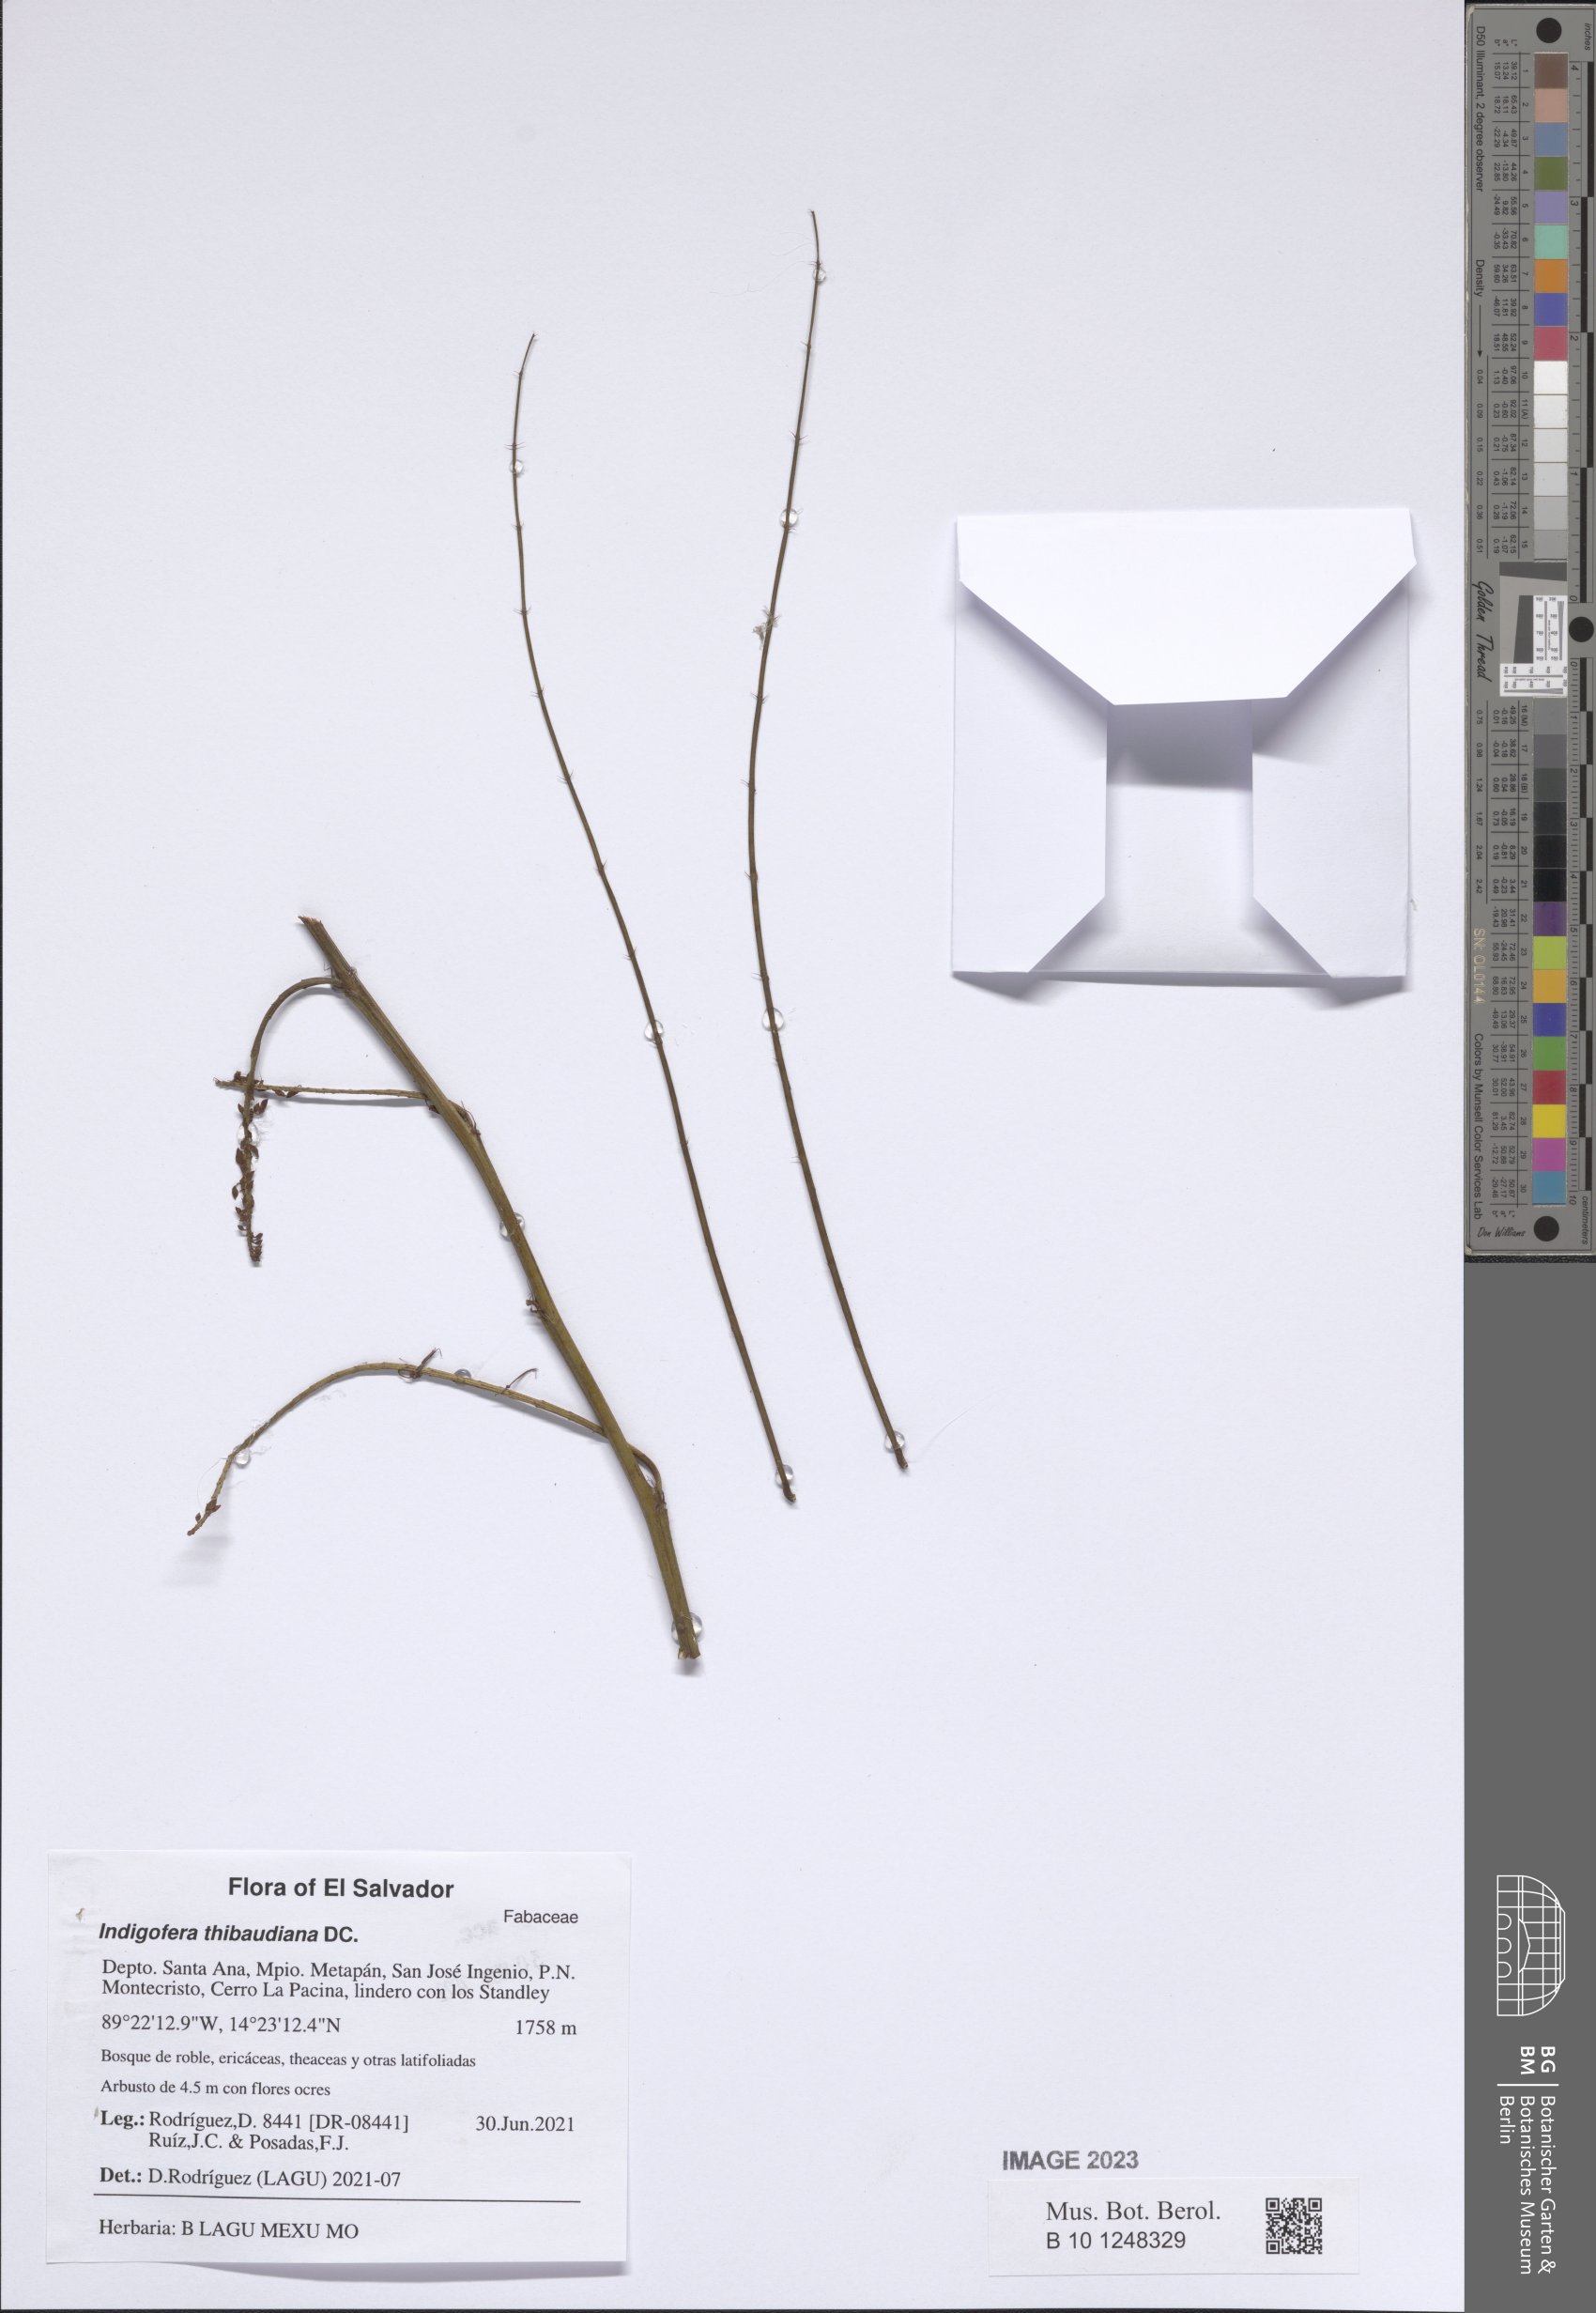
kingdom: Plantae
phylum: Tracheophyta
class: Magnoliopsida
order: Fabales
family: Fabaceae
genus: Indigofera
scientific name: Indigofera thibaudiana
